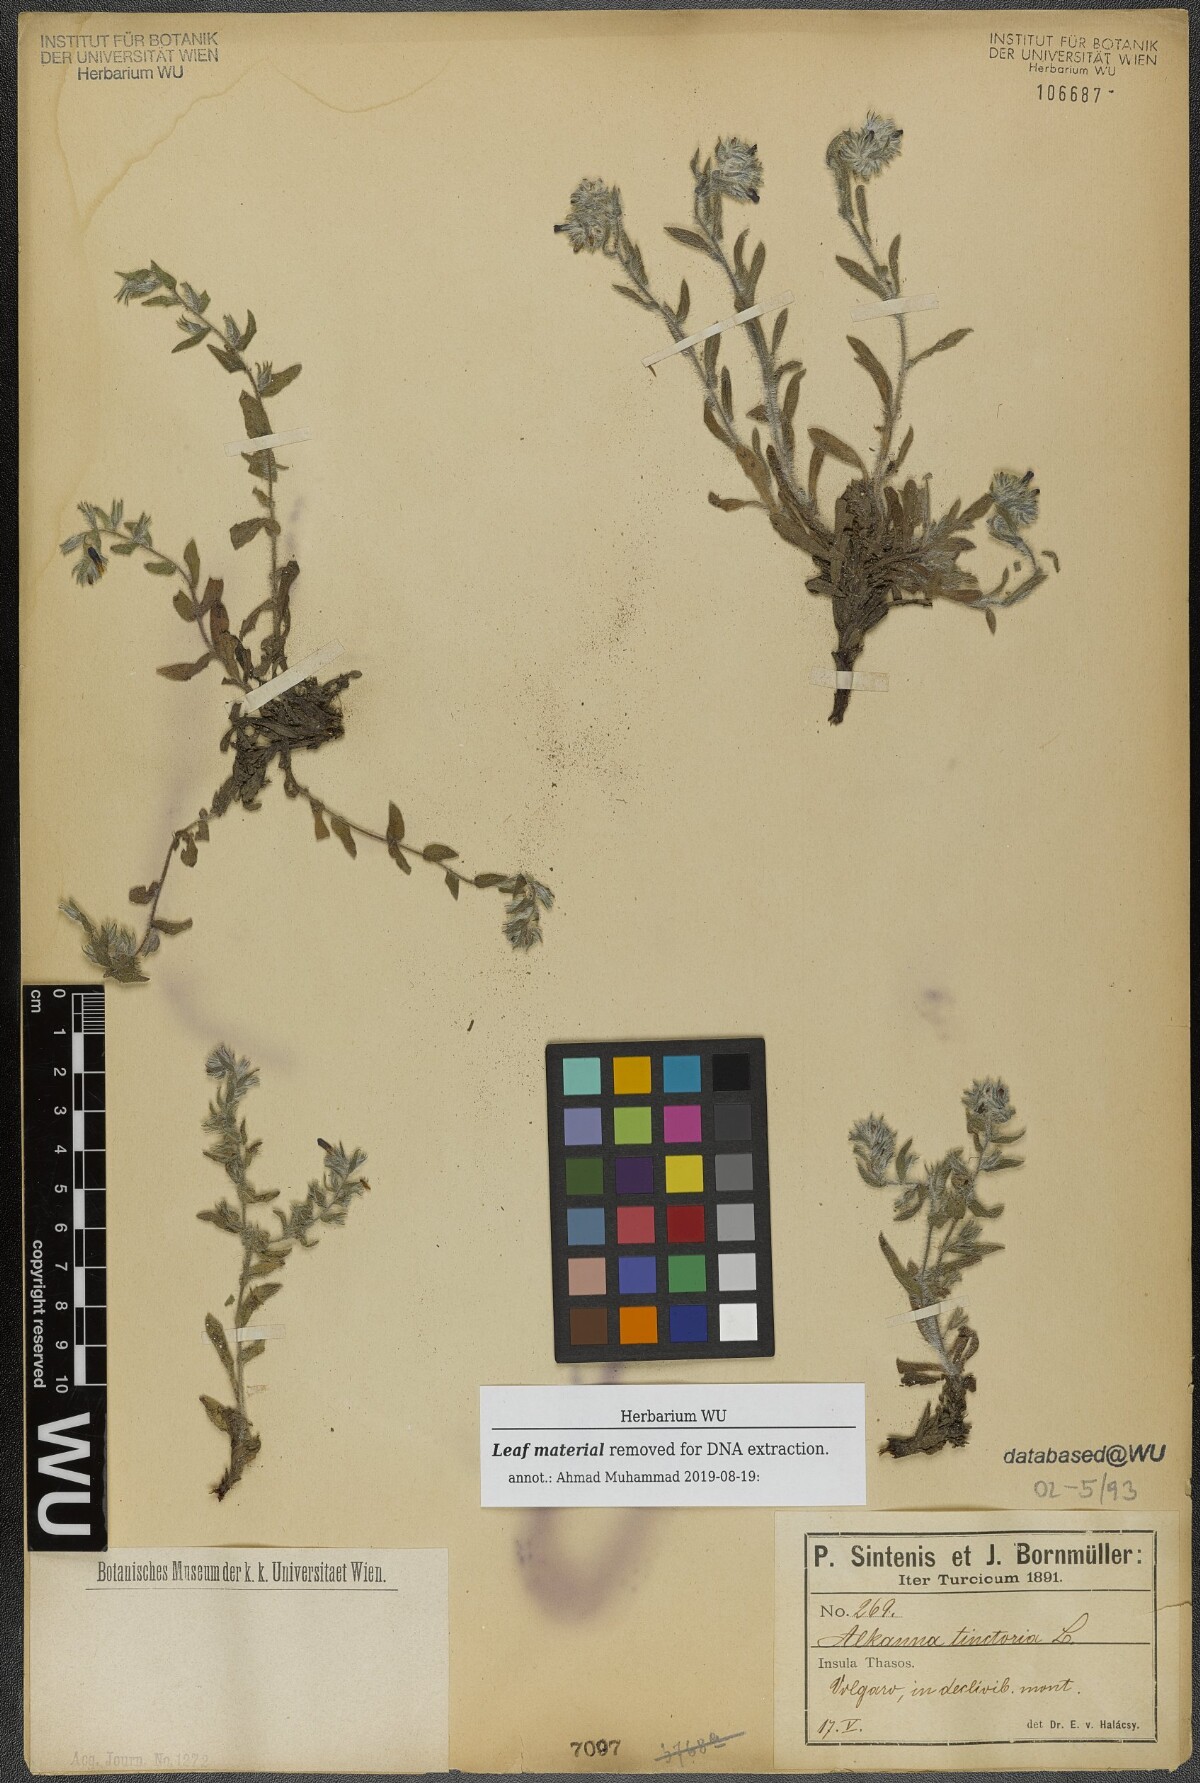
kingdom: Plantae
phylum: Tracheophyta
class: Magnoliopsida
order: Boraginales
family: Boraginaceae
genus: Alkanna
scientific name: Alkanna tinctoria
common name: Dyer's-alkanet
